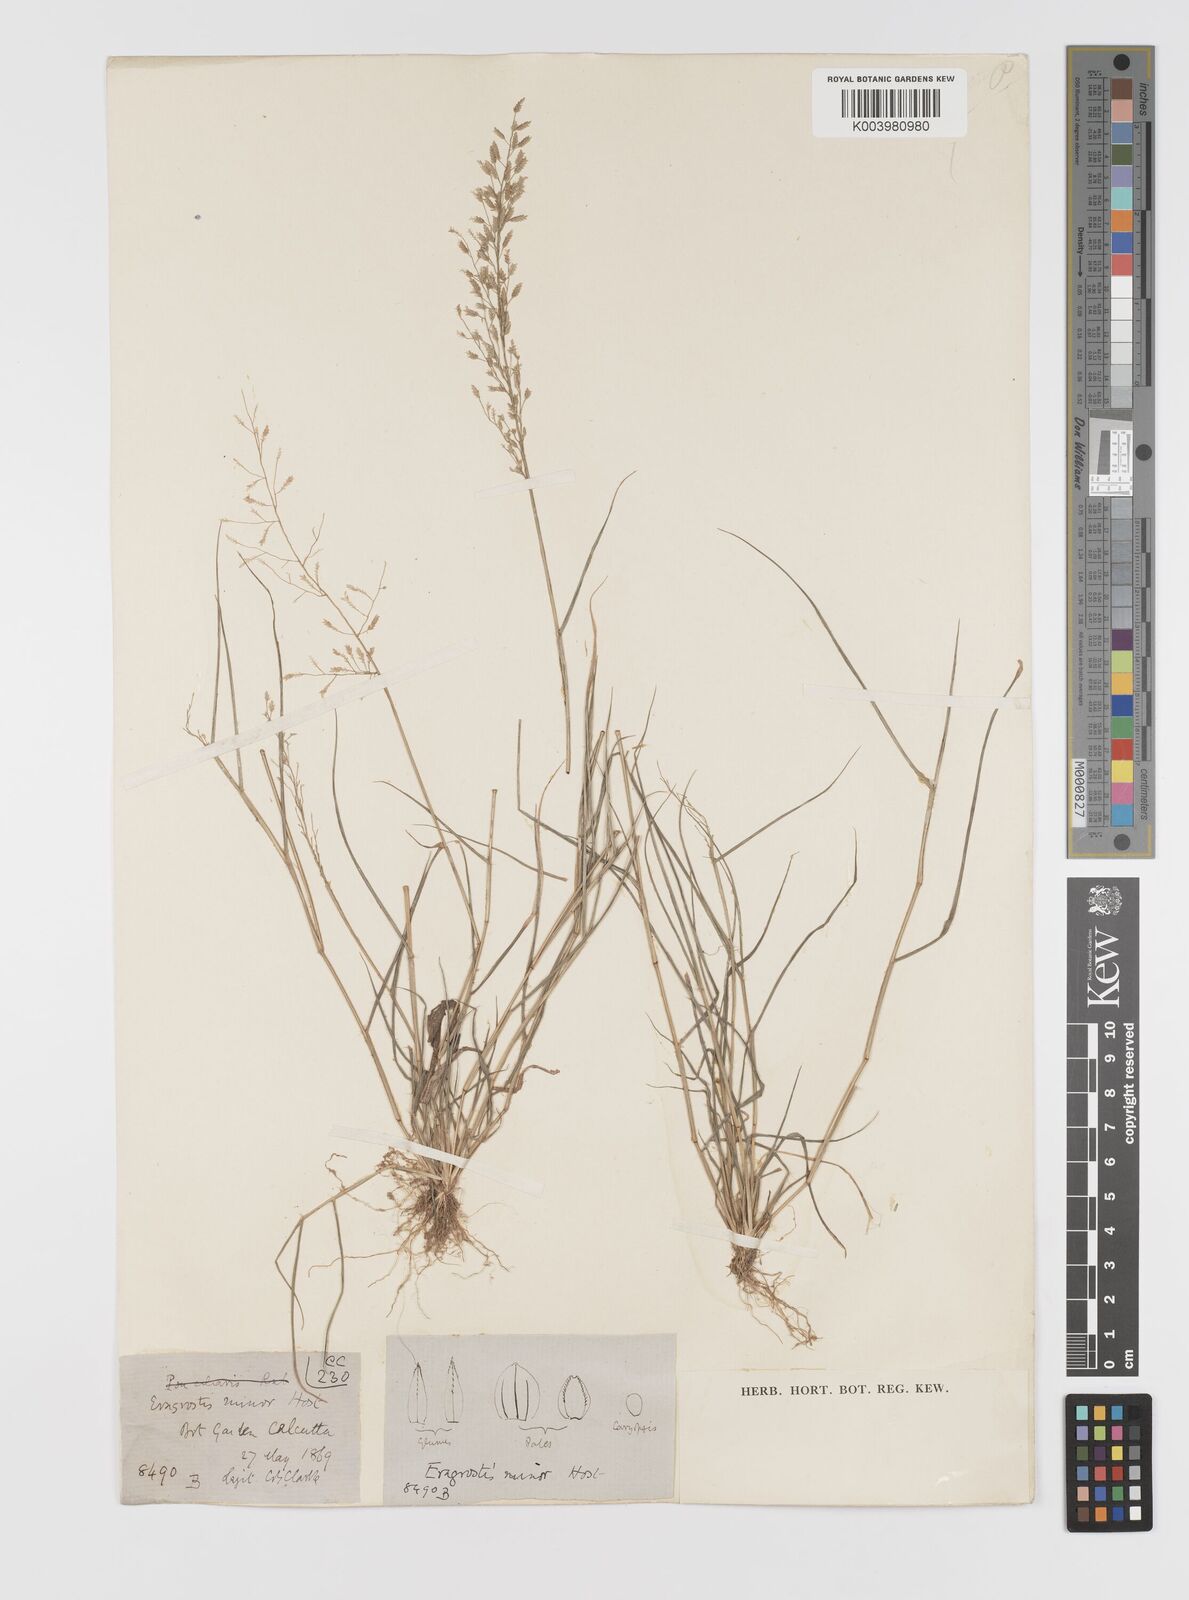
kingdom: Plantae
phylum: Tracheophyta
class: Liliopsida
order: Poales
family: Poaceae
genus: Eragrostis
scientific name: Eragrostis minor
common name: Small love-grass
